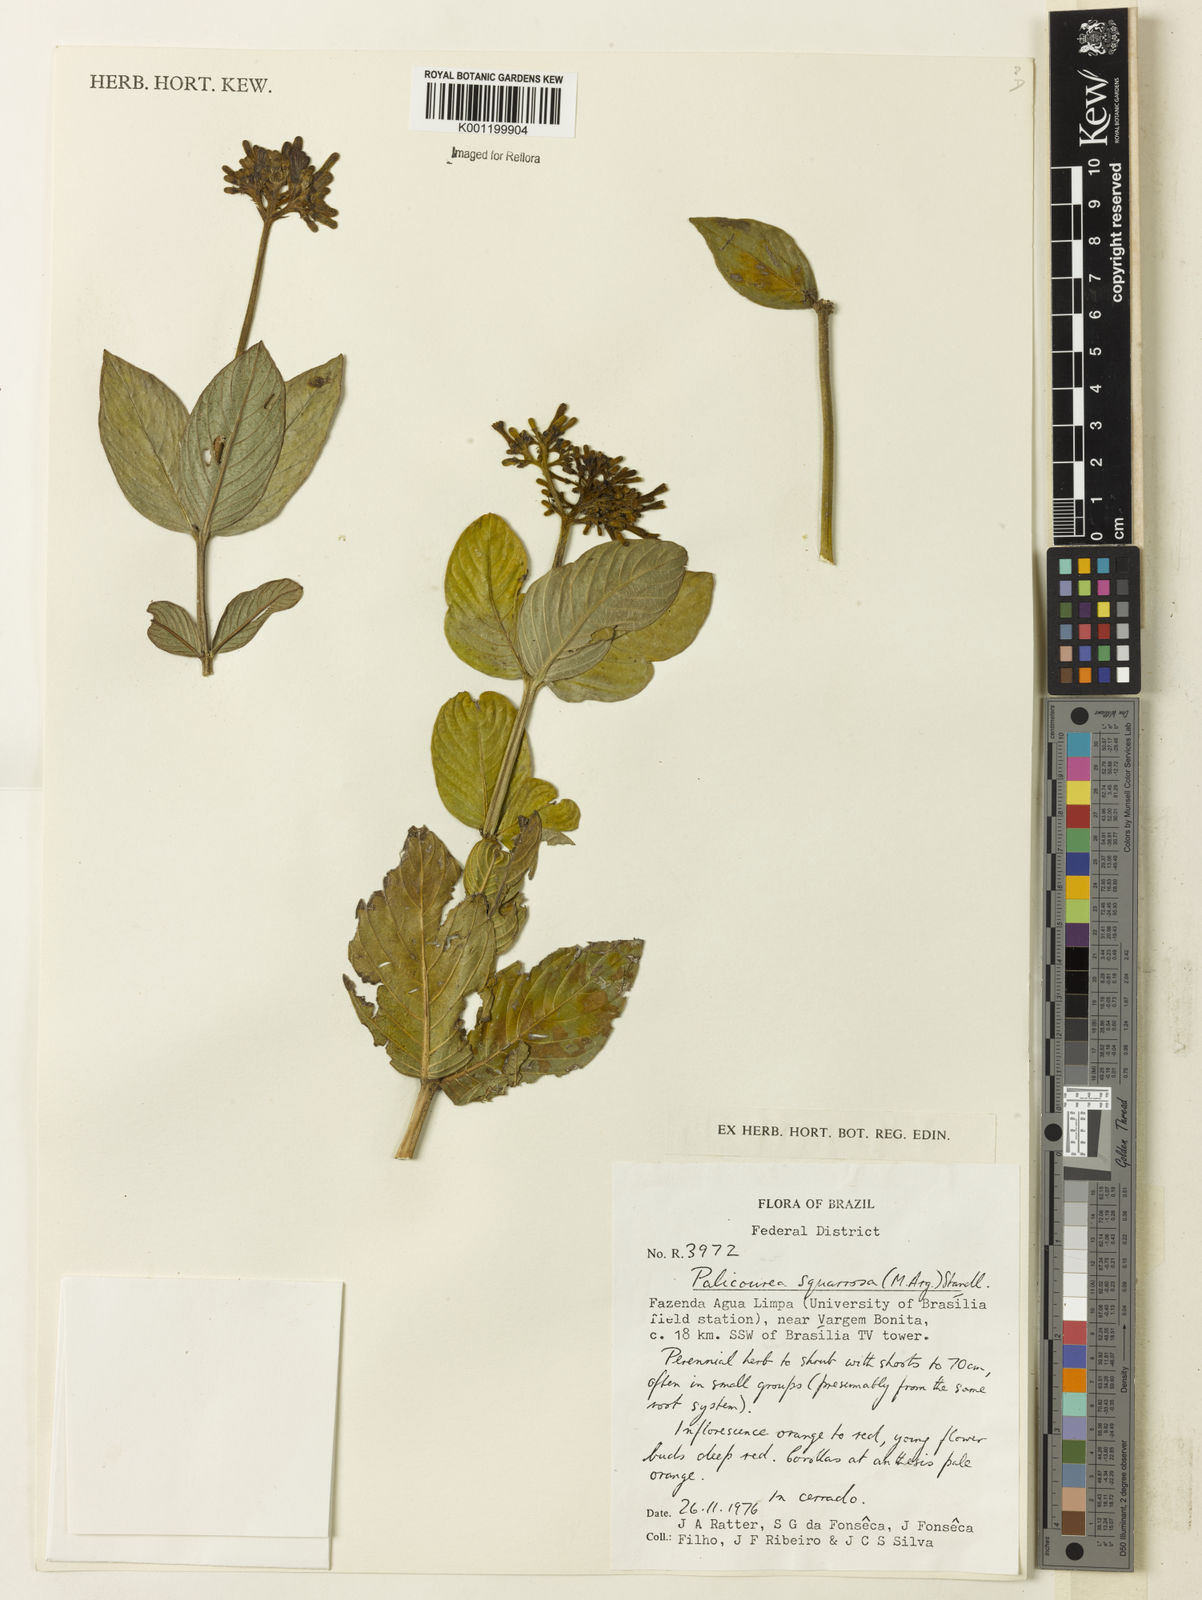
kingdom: Plantae
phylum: Tracheophyta
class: Magnoliopsida
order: Gentianales
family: Rubiaceae
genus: Palicourea
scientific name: Palicourea
